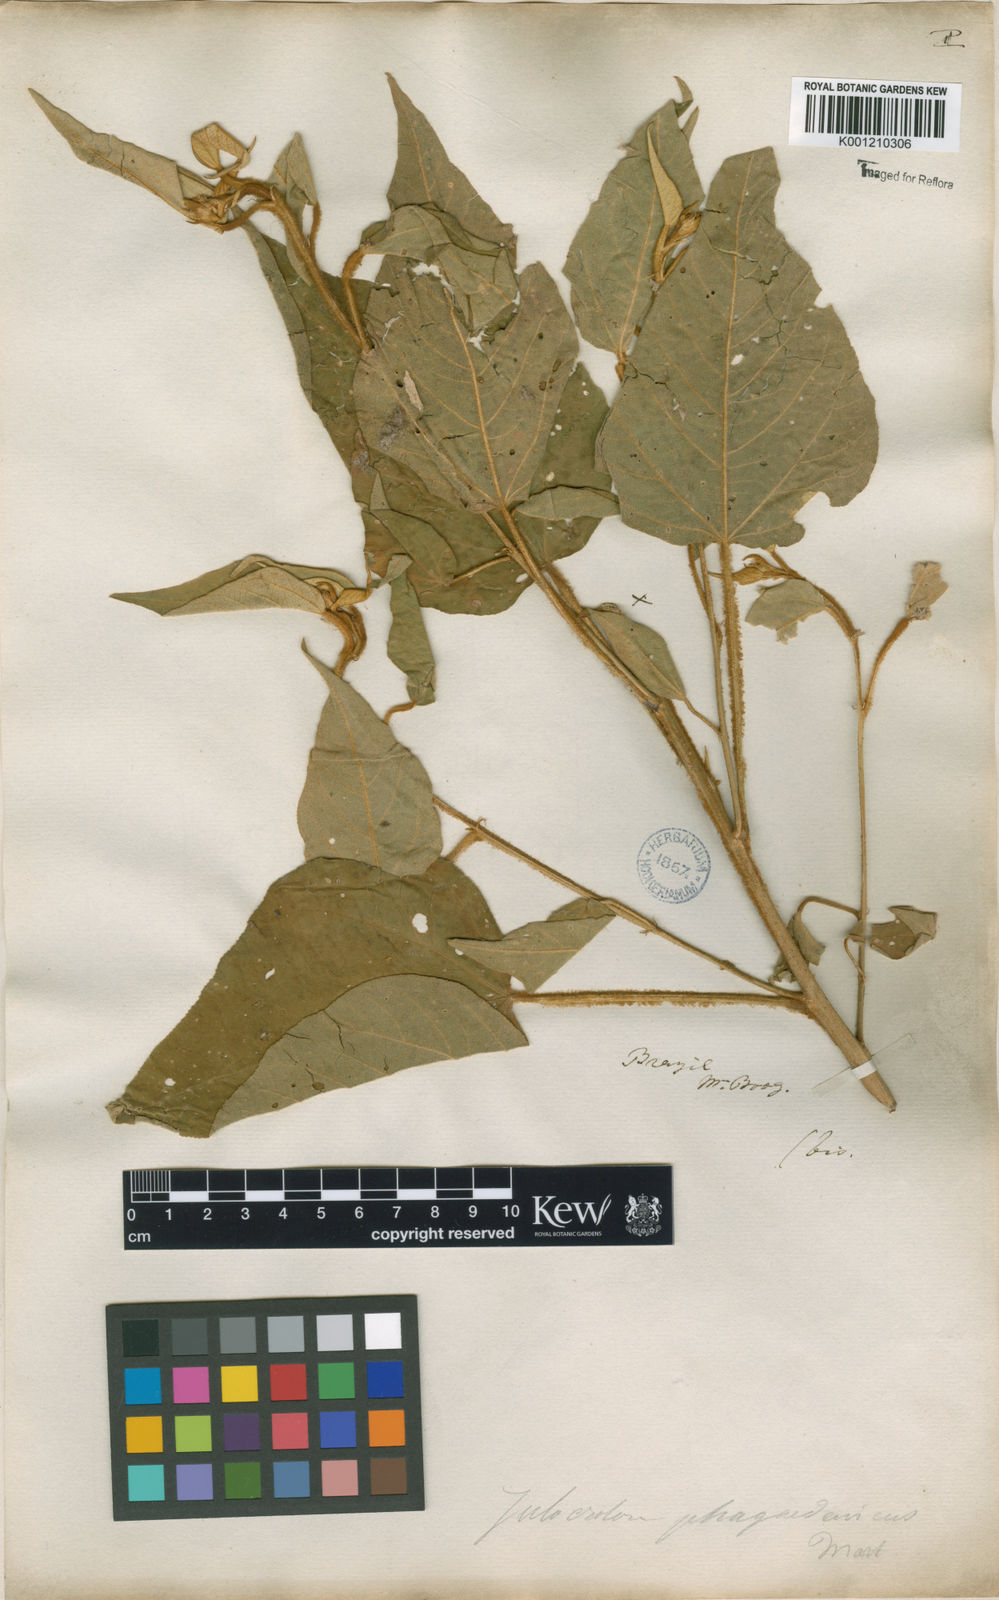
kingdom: Plantae
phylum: Tracheophyta
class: Magnoliopsida
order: Malpighiales
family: Euphorbiaceae
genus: Croton
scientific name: Croton triqueter
